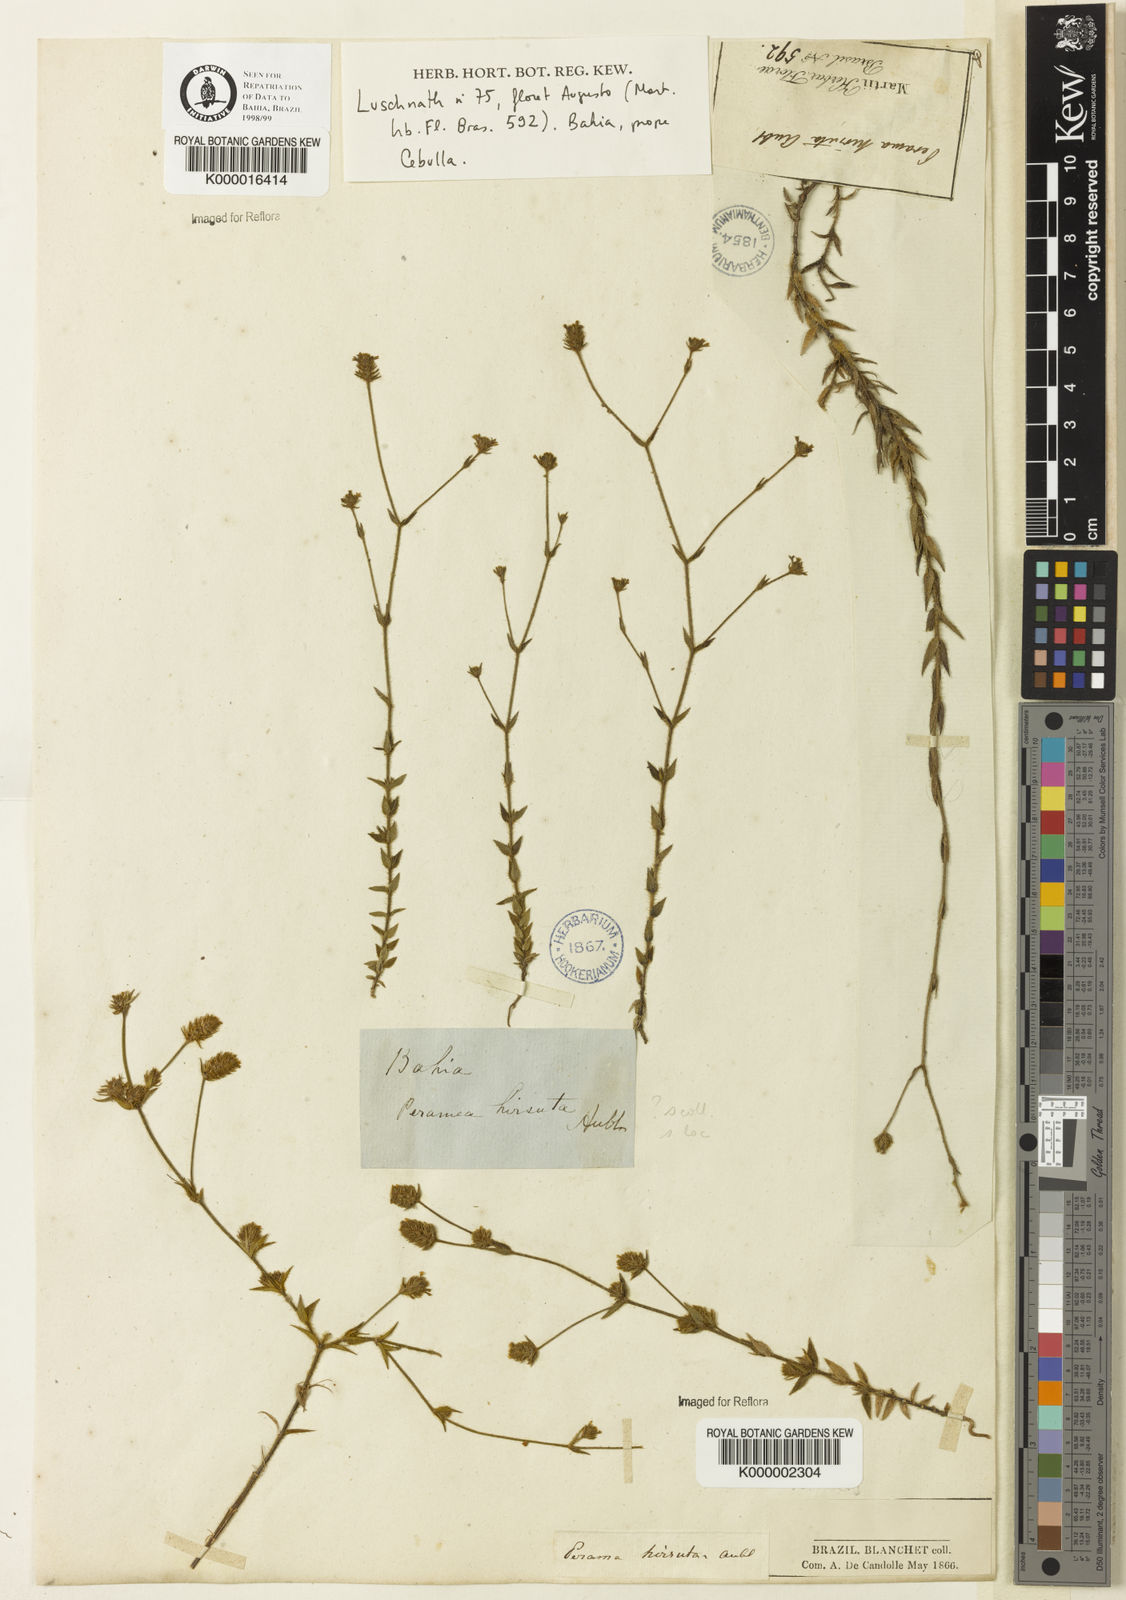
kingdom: Plantae
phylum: Tracheophyta
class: Magnoliopsida
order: Gentianales
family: Rubiaceae
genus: Perama
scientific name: Perama hirsuta
